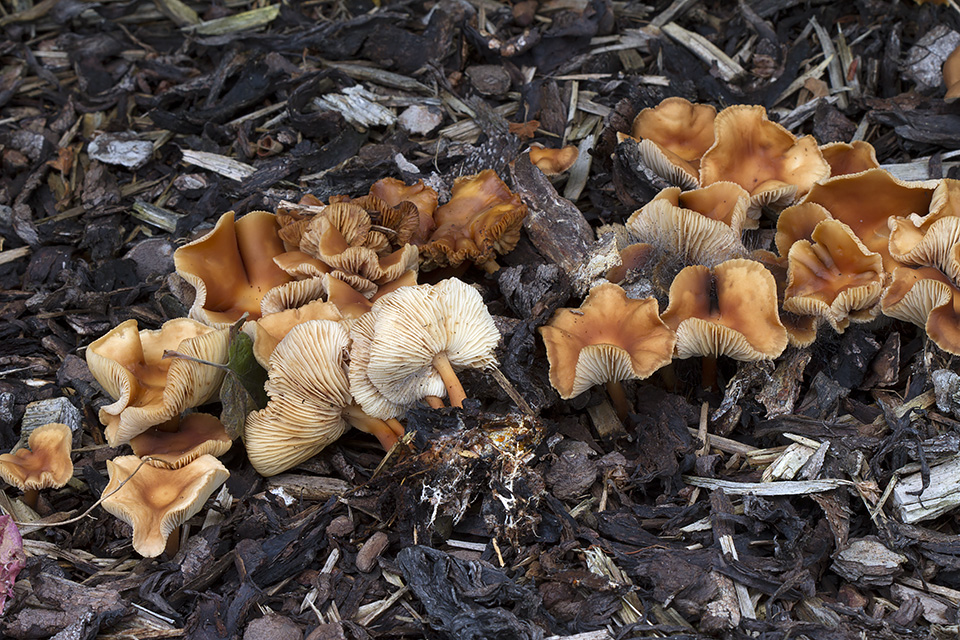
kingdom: Fungi
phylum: Basidiomycota
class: Agaricomycetes
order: Agaricales
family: Omphalotaceae
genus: Gymnopus
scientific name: Gymnopus ocior
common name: mørk fladhat
